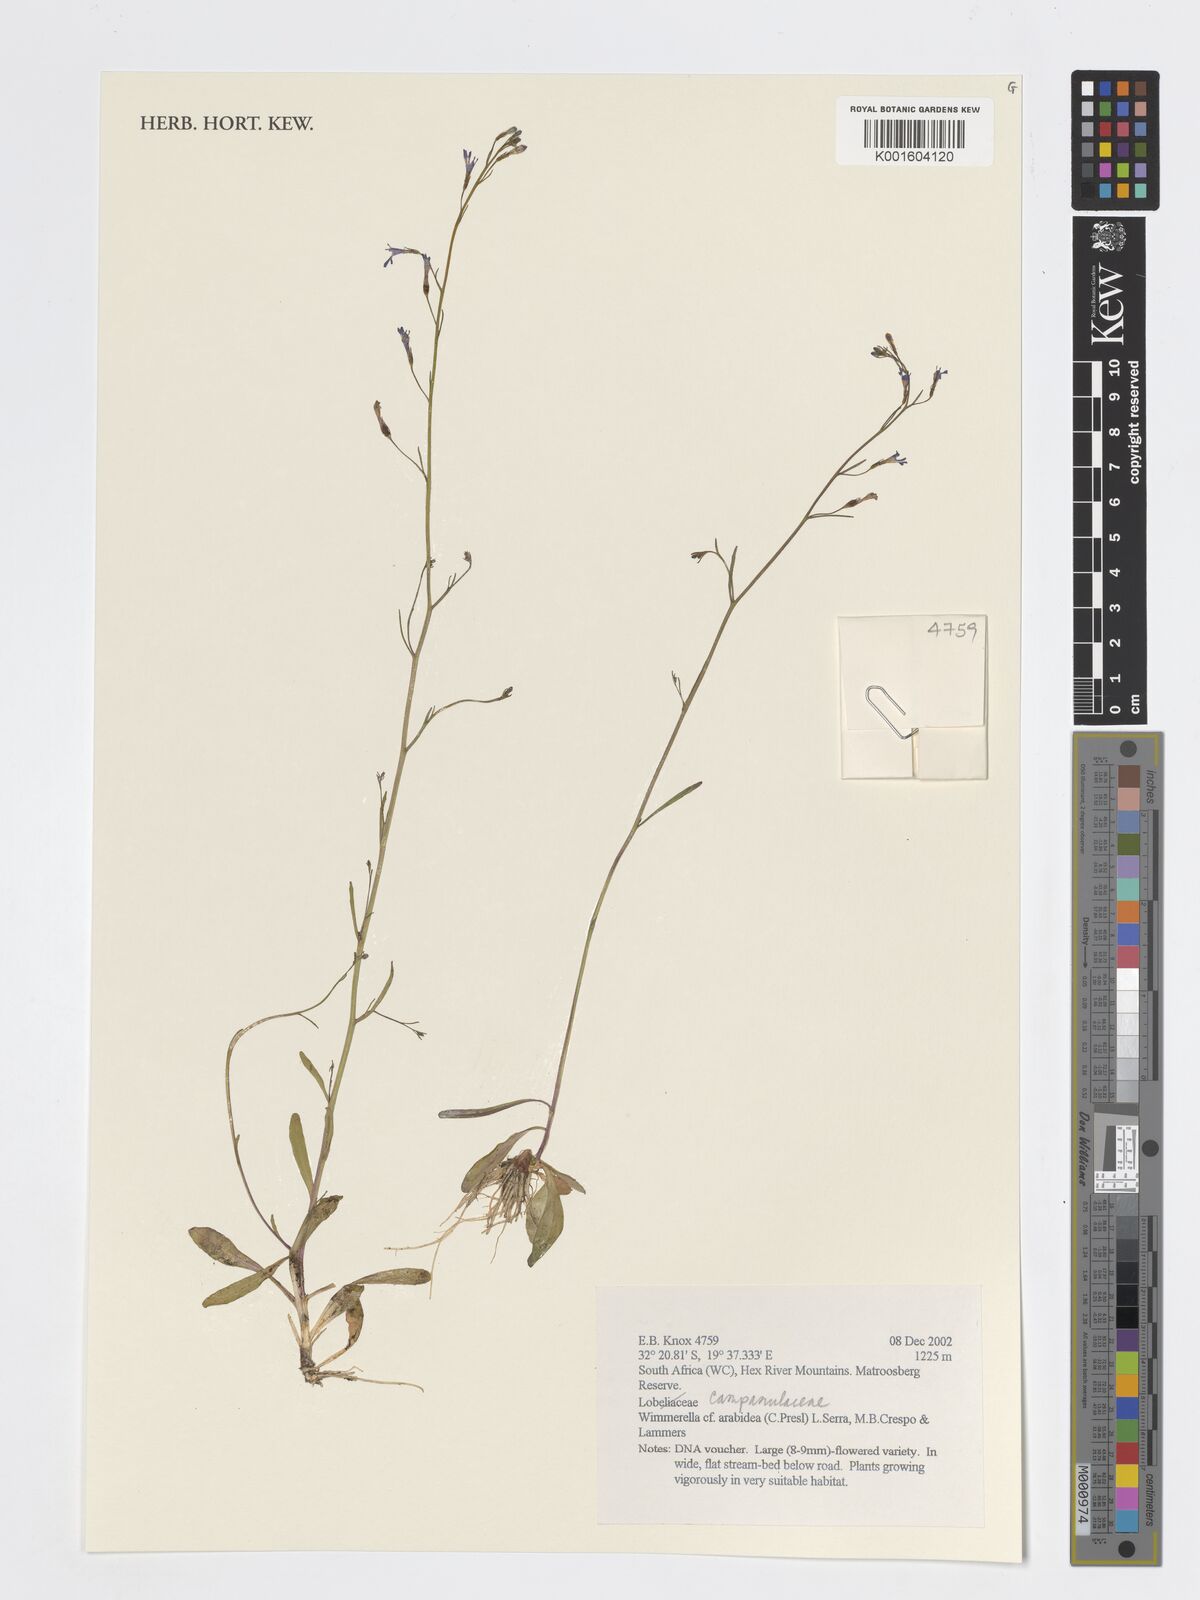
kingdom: Plantae
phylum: Tracheophyta
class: Magnoliopsida
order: Asterales
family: Campanulaceae
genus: Wimmerella
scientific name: Wimmerella arabidea
